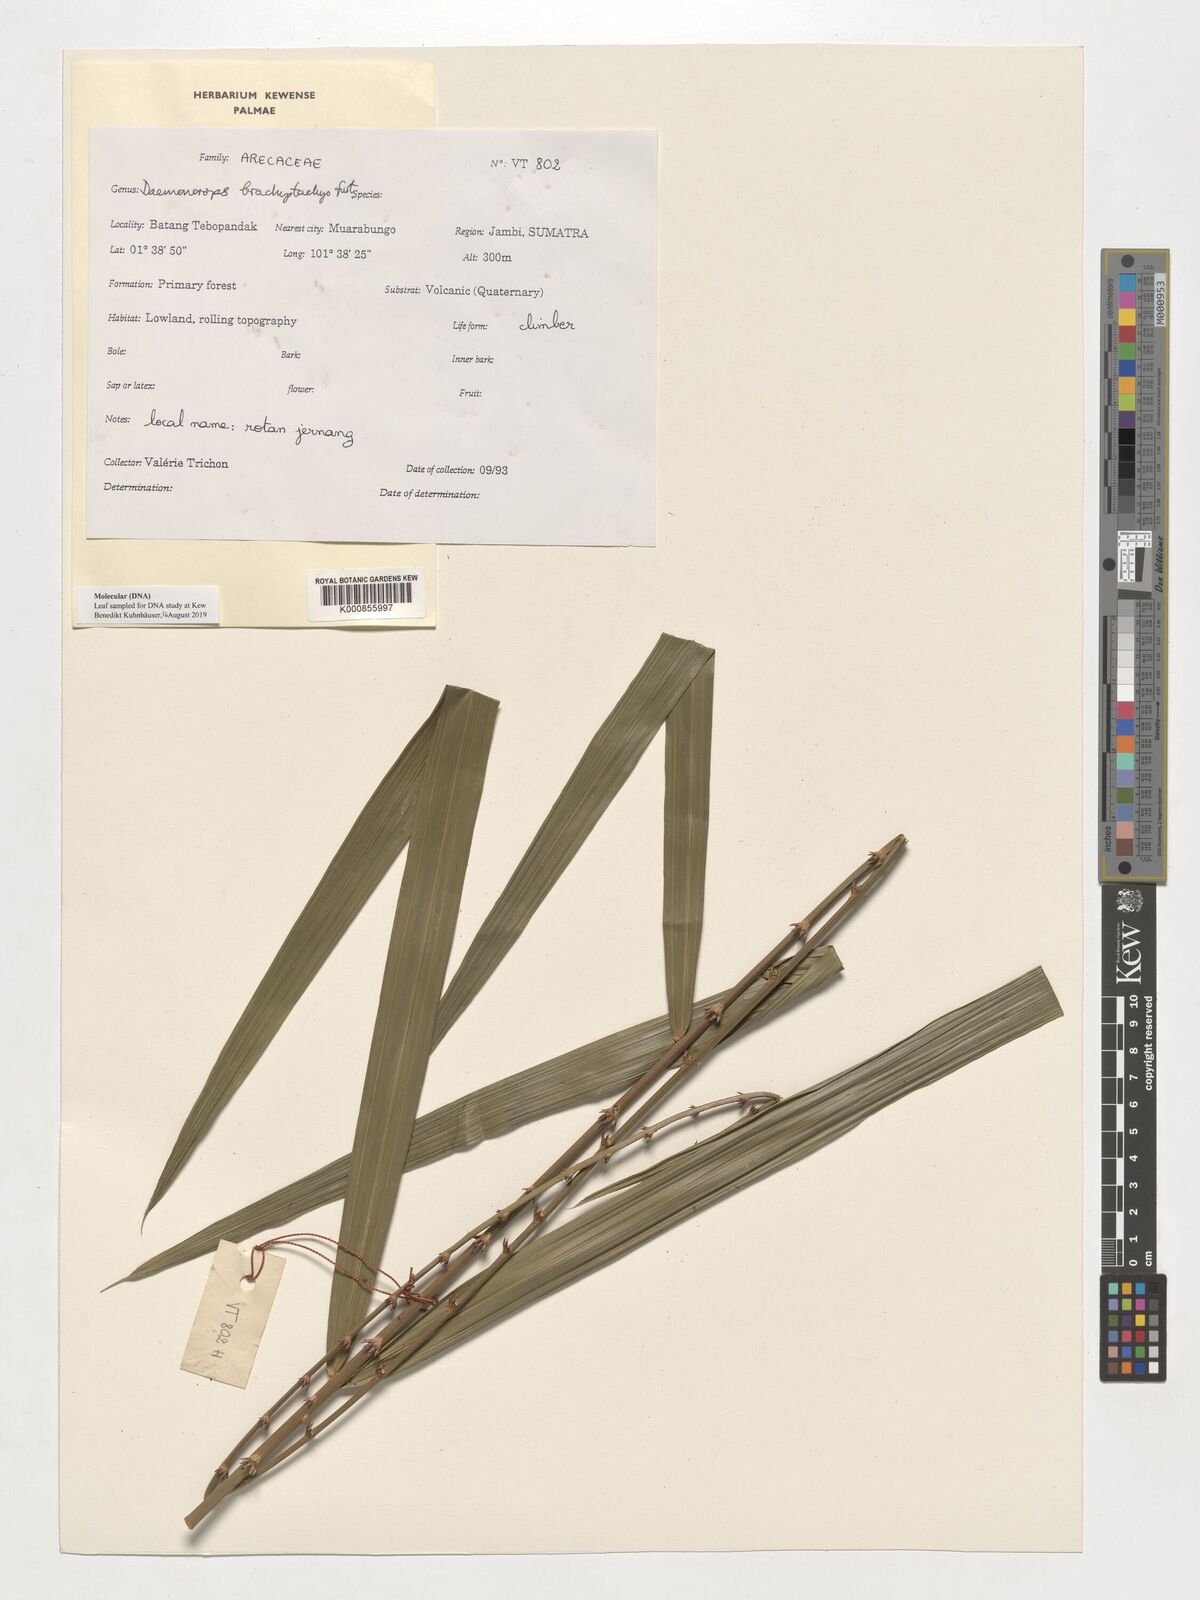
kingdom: Plantae
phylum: Tracheophyta
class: Liliopsida
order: Arecales
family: Arecaceae
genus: Calamus
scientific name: Calamus propinquus
